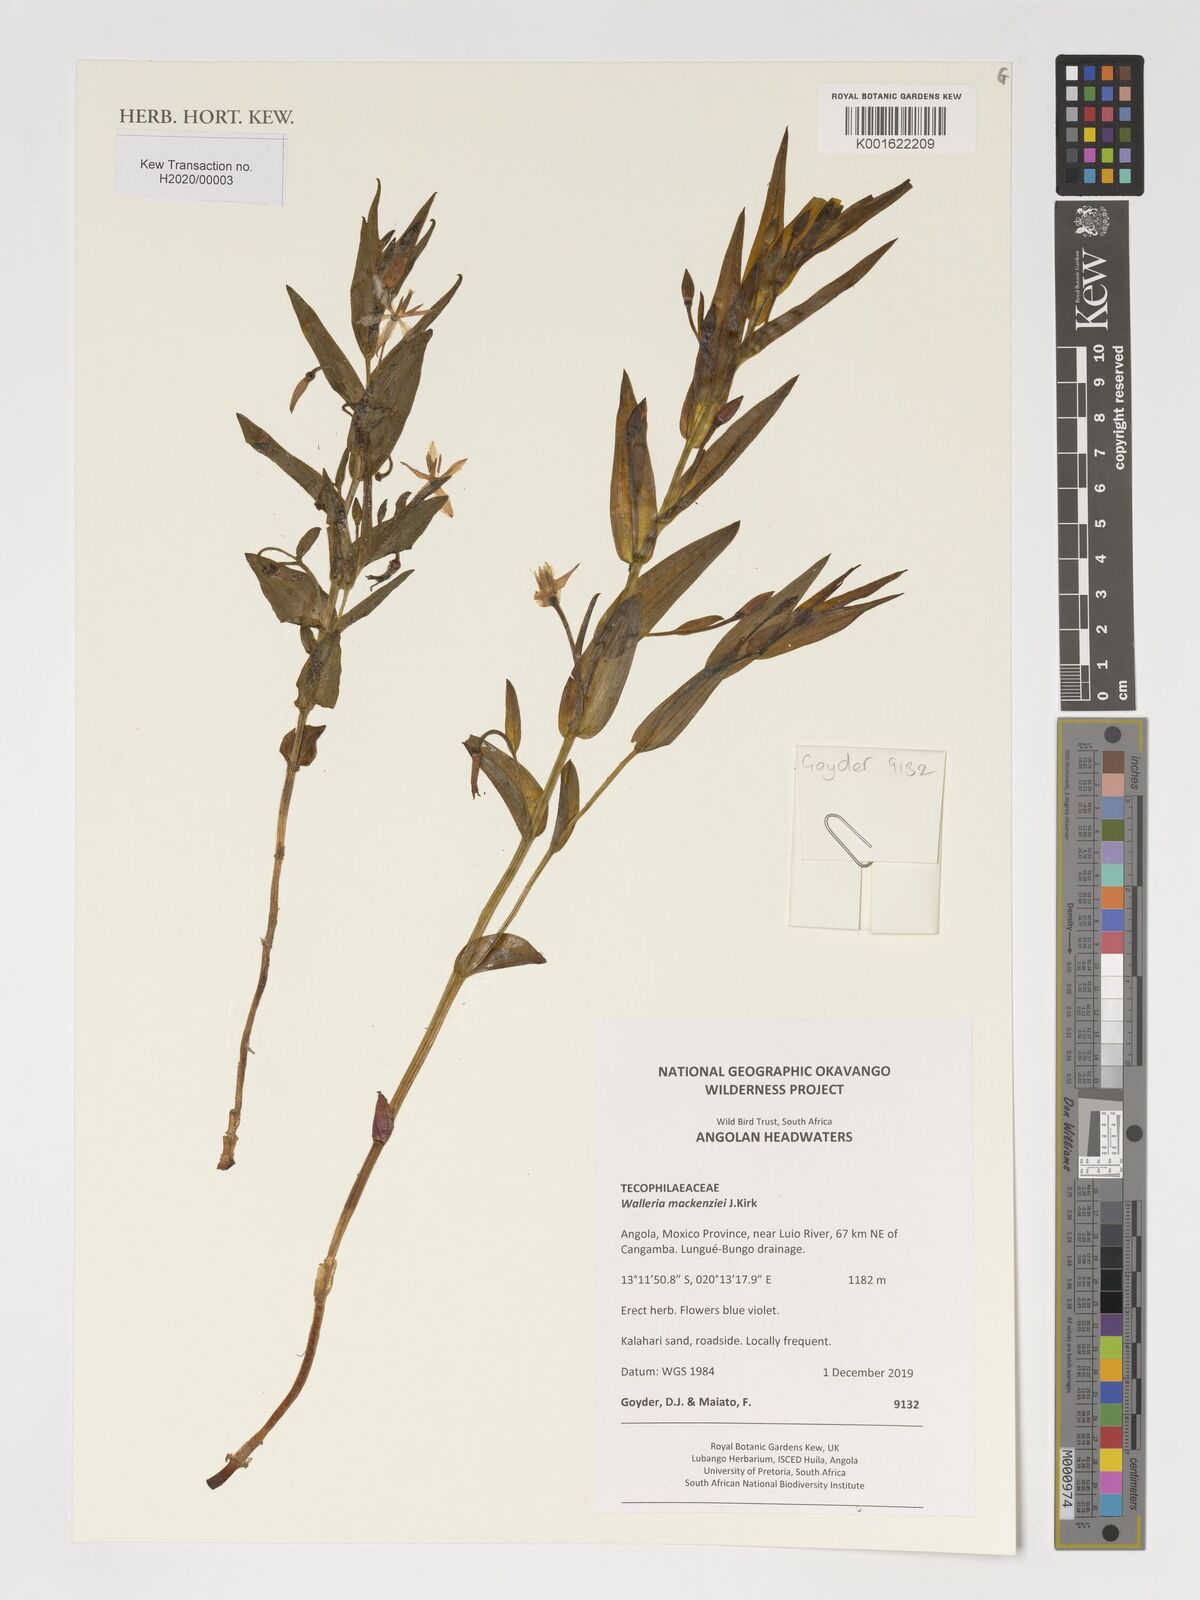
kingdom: Plantae
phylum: Tracheophyta
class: Liliopsida
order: Asparagales
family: Tecophilaeaceae
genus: Walleria
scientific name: Walleria mackenziei
